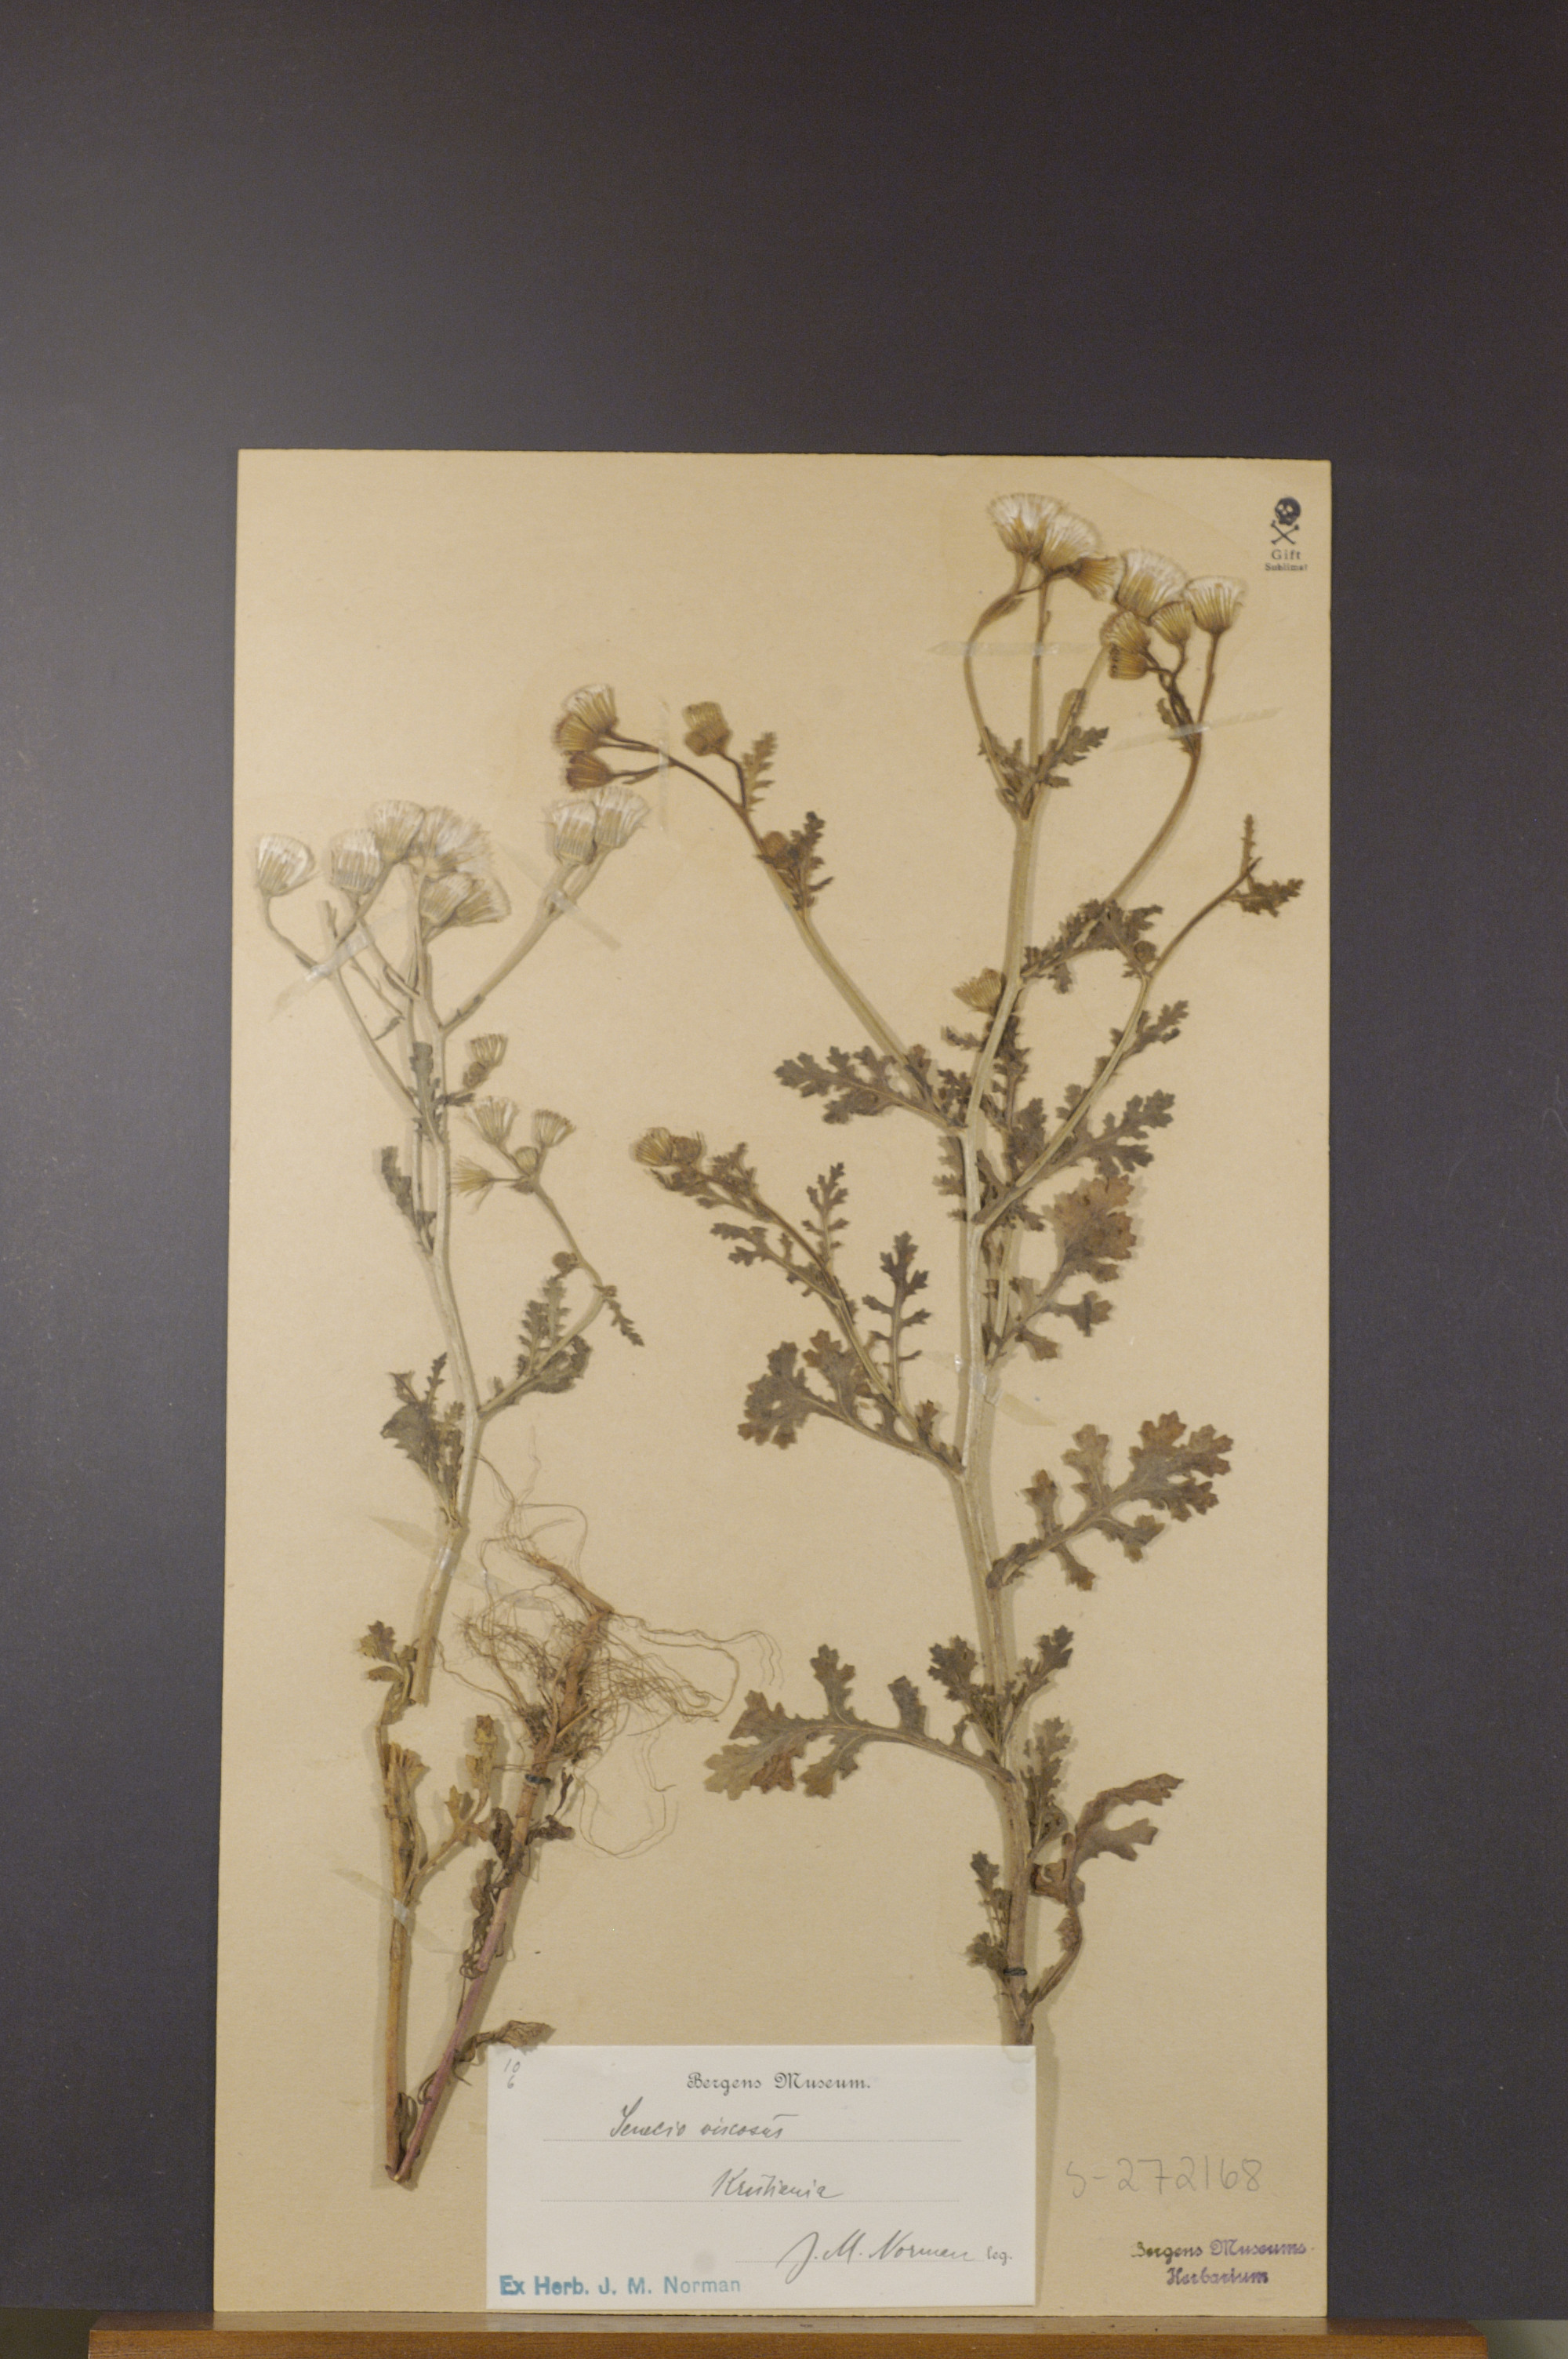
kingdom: Plantae
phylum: Tracheophyta
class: Magnoliopsida
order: Asterales
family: Asteraceae
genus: Senecio
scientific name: Senecio viscosus
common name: Sticky groundsel
